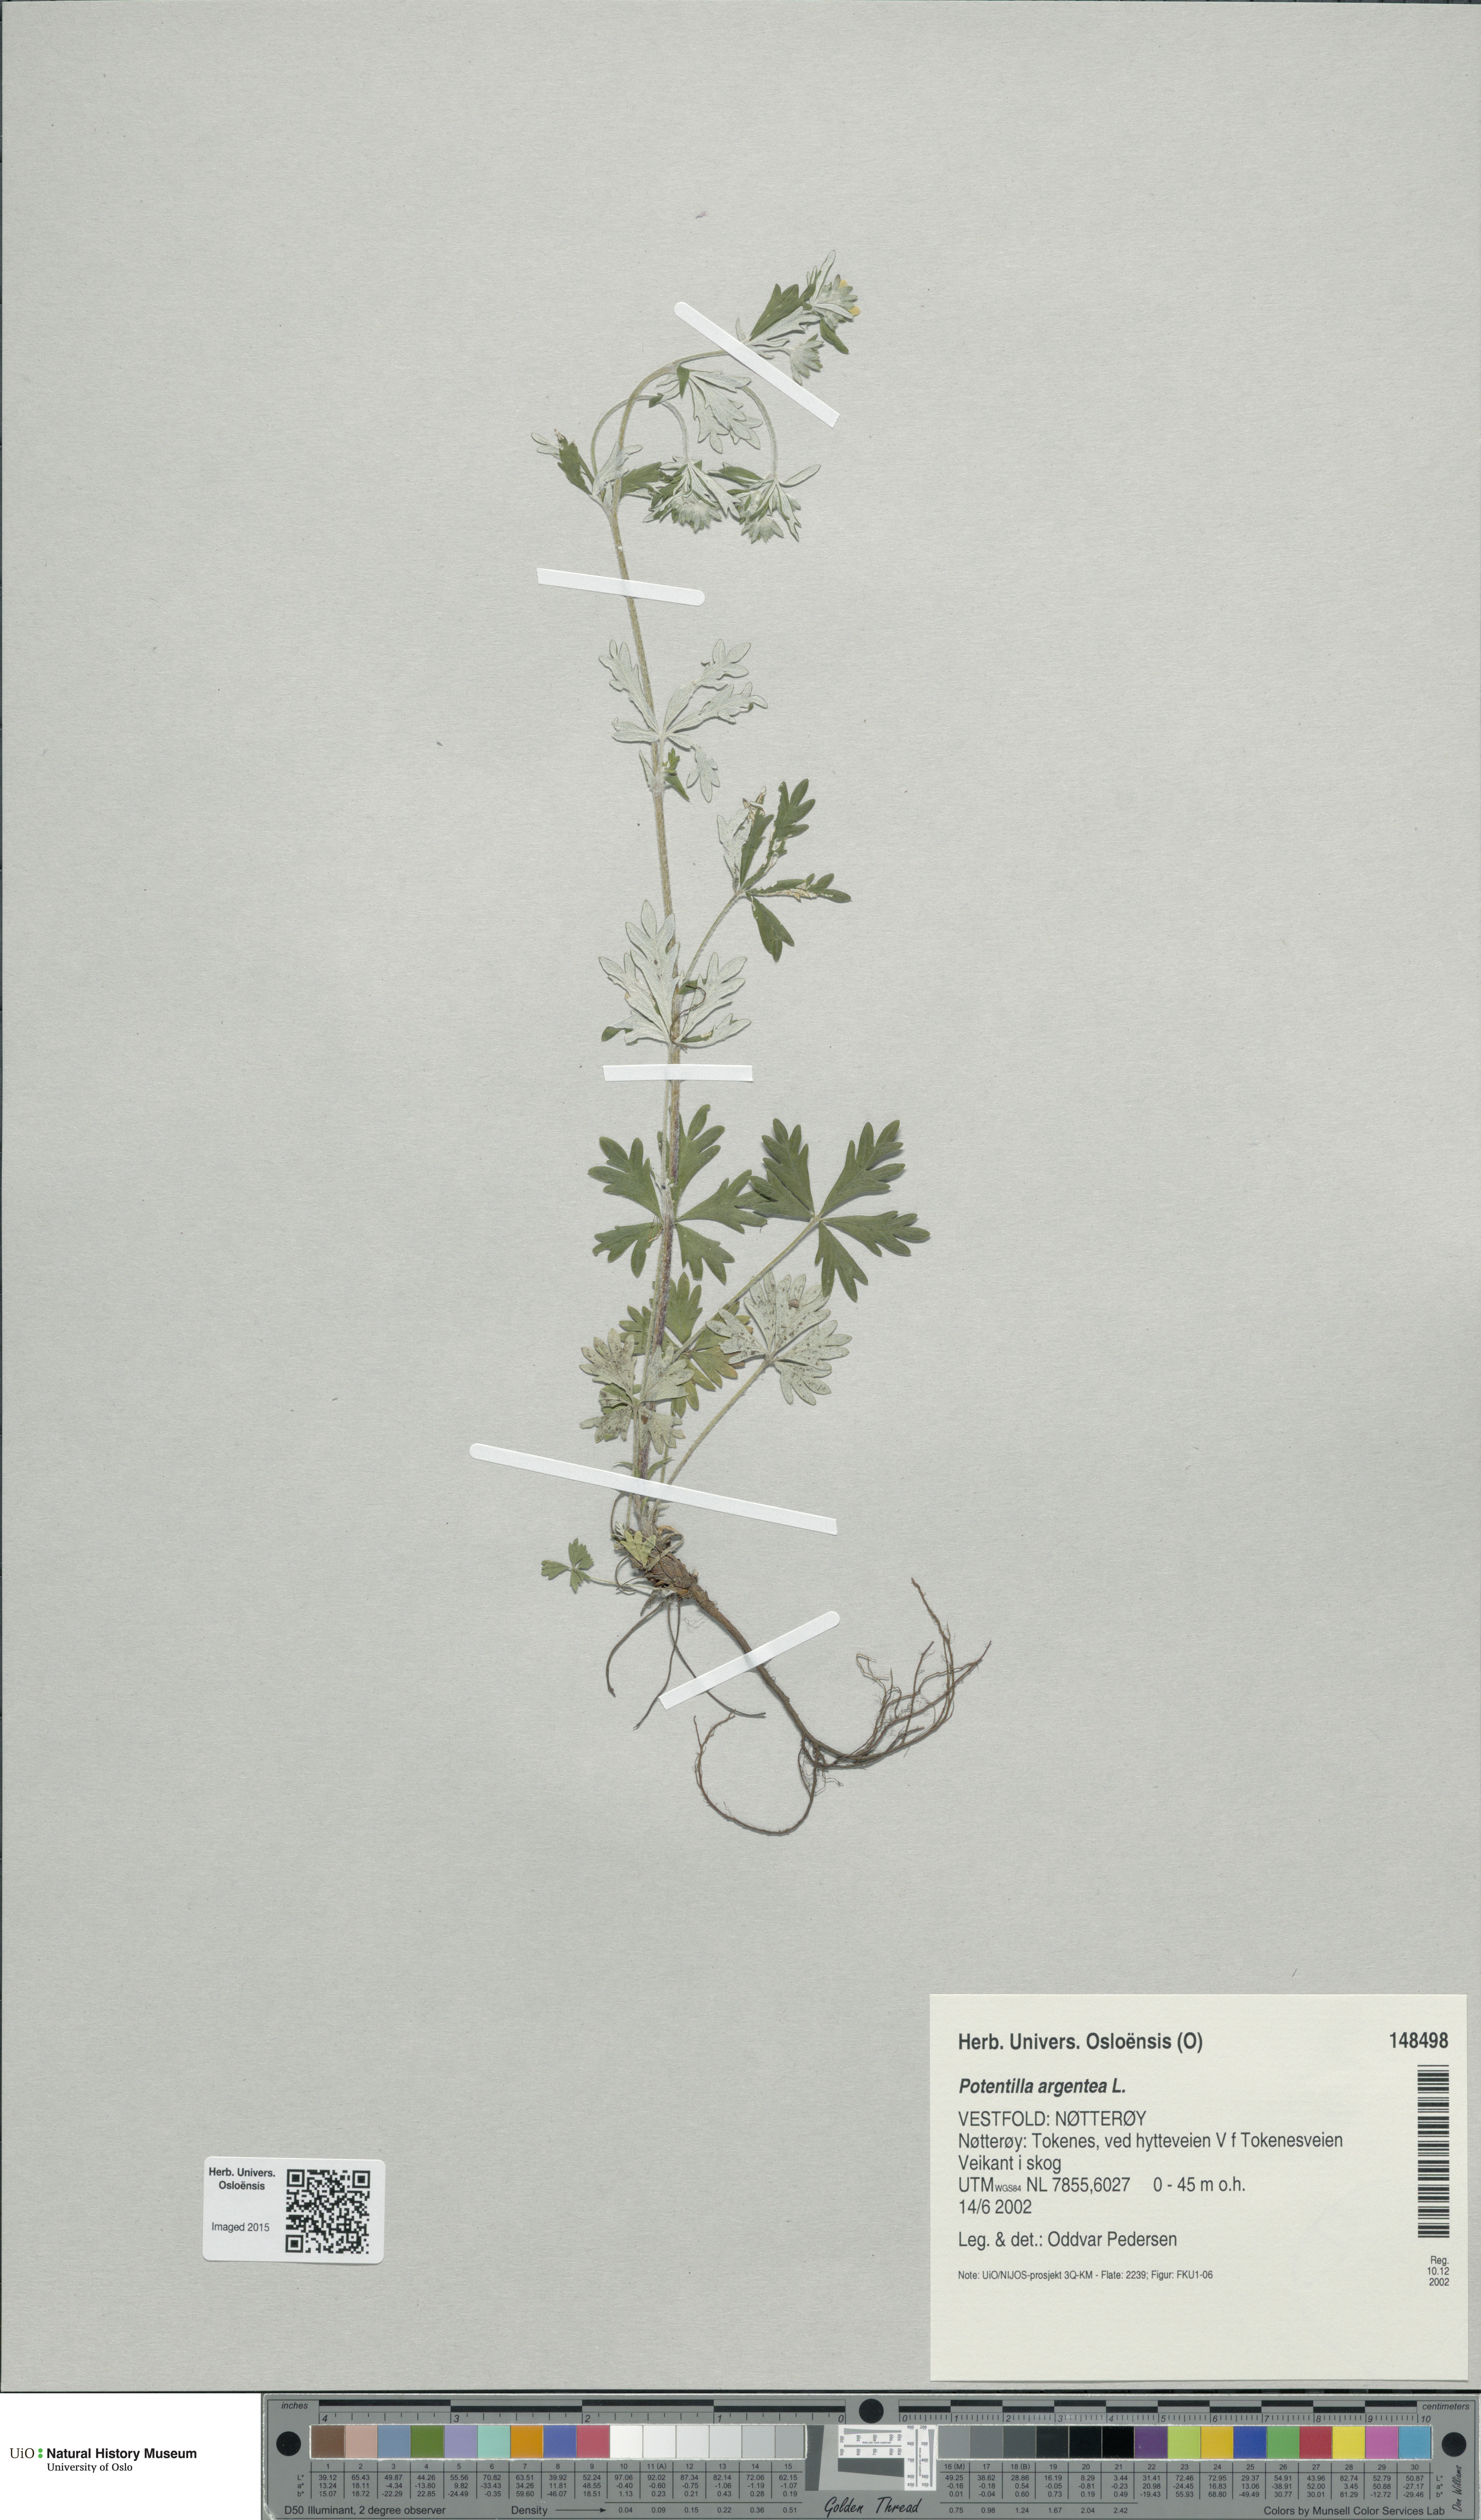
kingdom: Plantae
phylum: Tracheophyta
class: Magnoliopsida
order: Rosales
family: Rosaceae
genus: Potentilla
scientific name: Potentilla argentea
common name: Hoary cinquefoil
